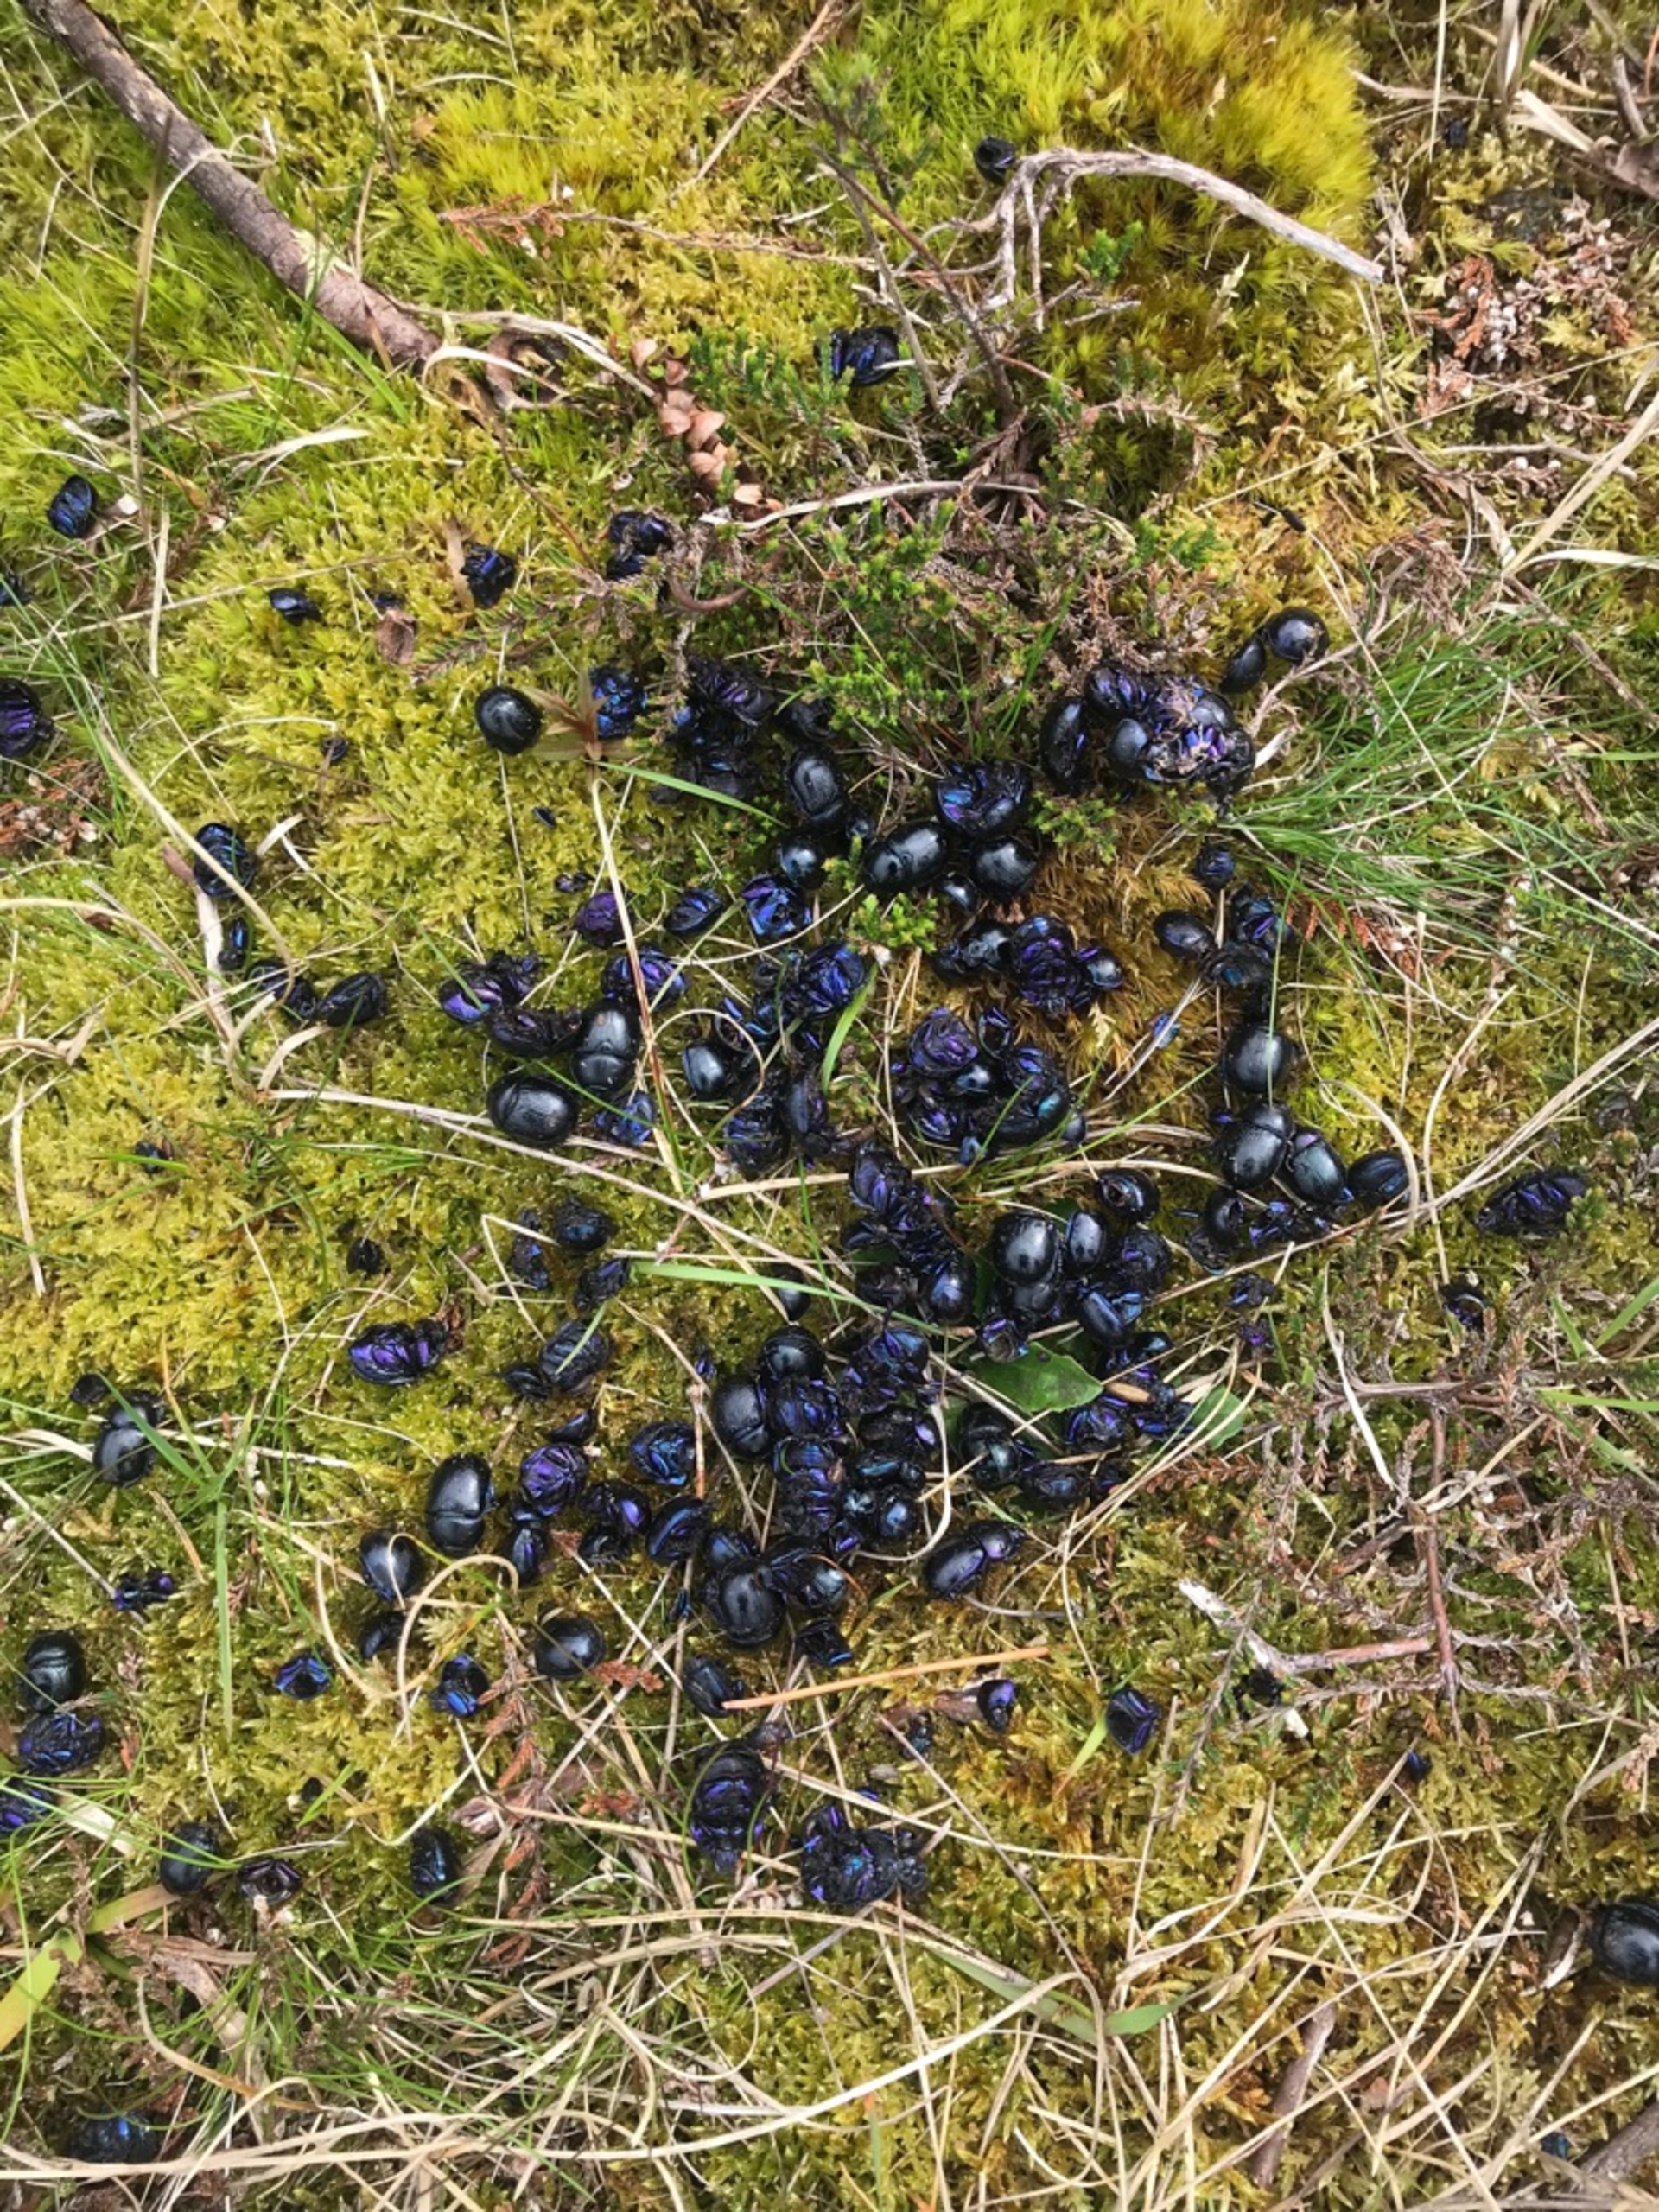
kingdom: Animalia
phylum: Arthropoda
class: Insecta
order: Coleoptera
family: Geotrupidae
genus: Anoplotrupes
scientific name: Anoplotrupes stercorosus
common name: Skovskarnbasse
